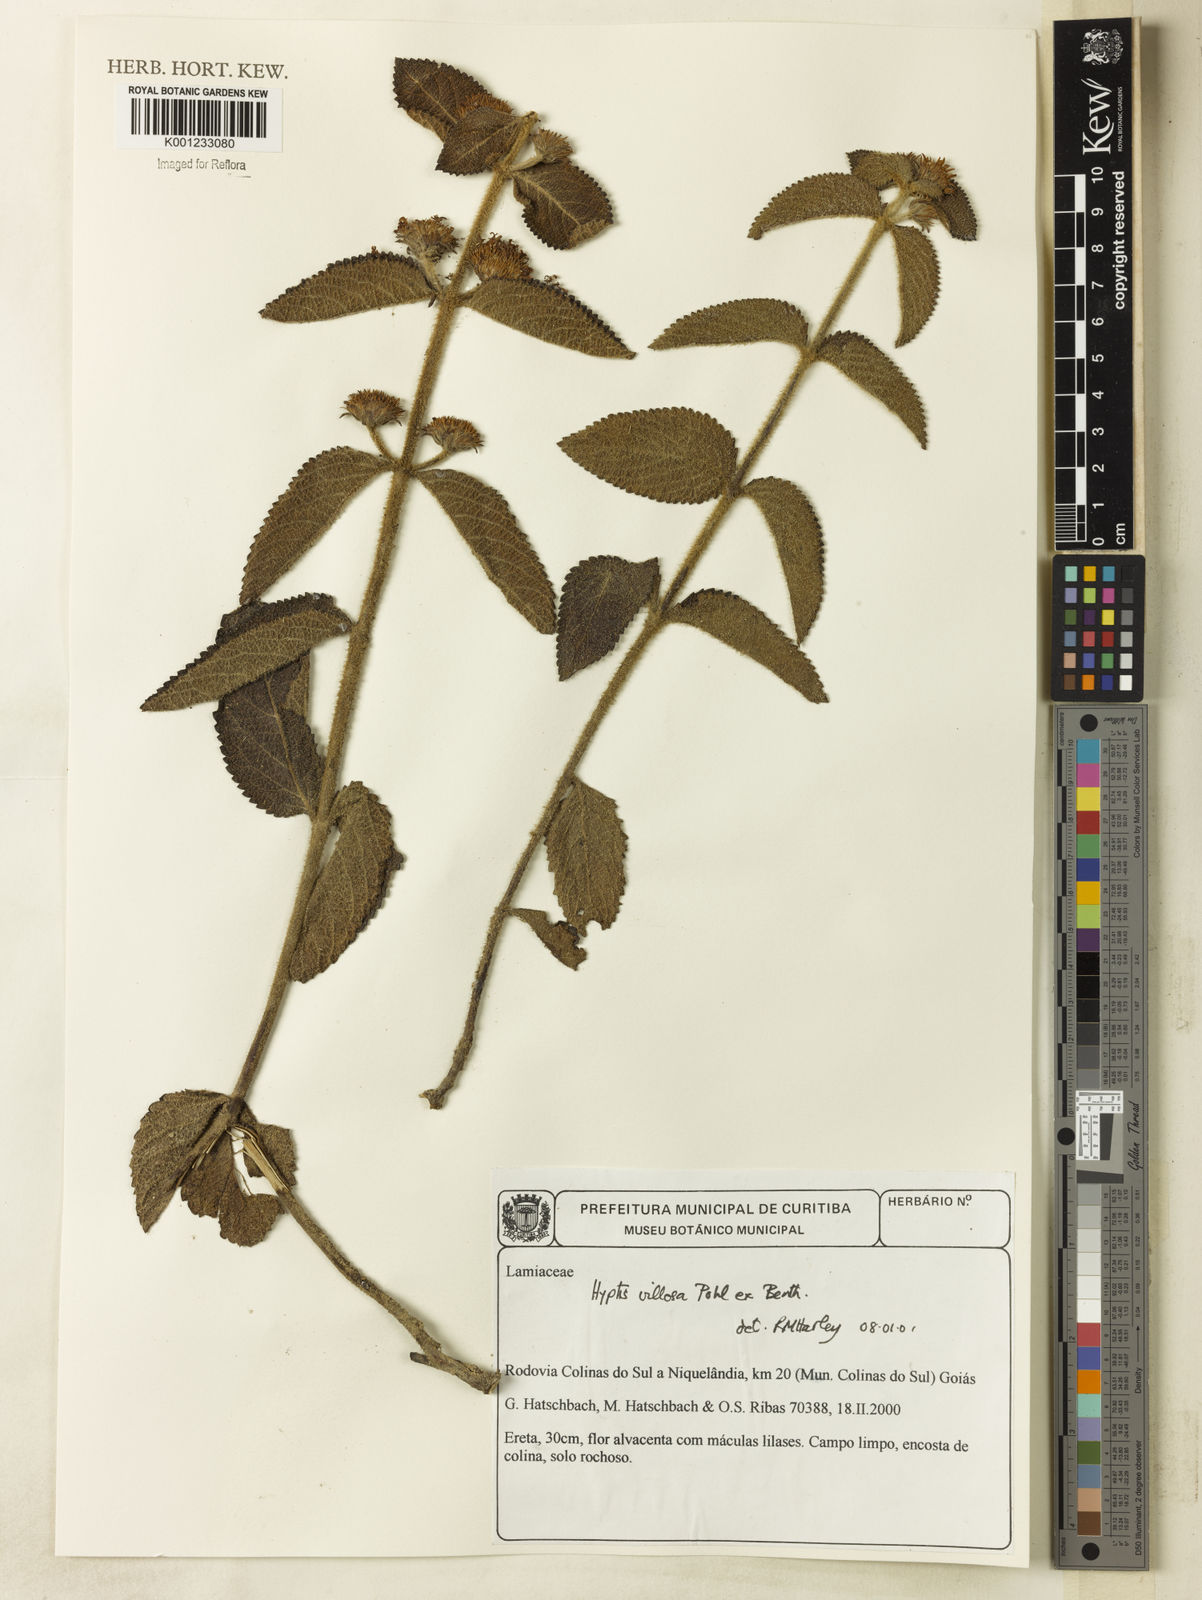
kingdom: Plantae
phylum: Tracheophyta
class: Magnoliopsida
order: Lamiales
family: Lamiaceae
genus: Hyptis
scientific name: Hyptis villosa
